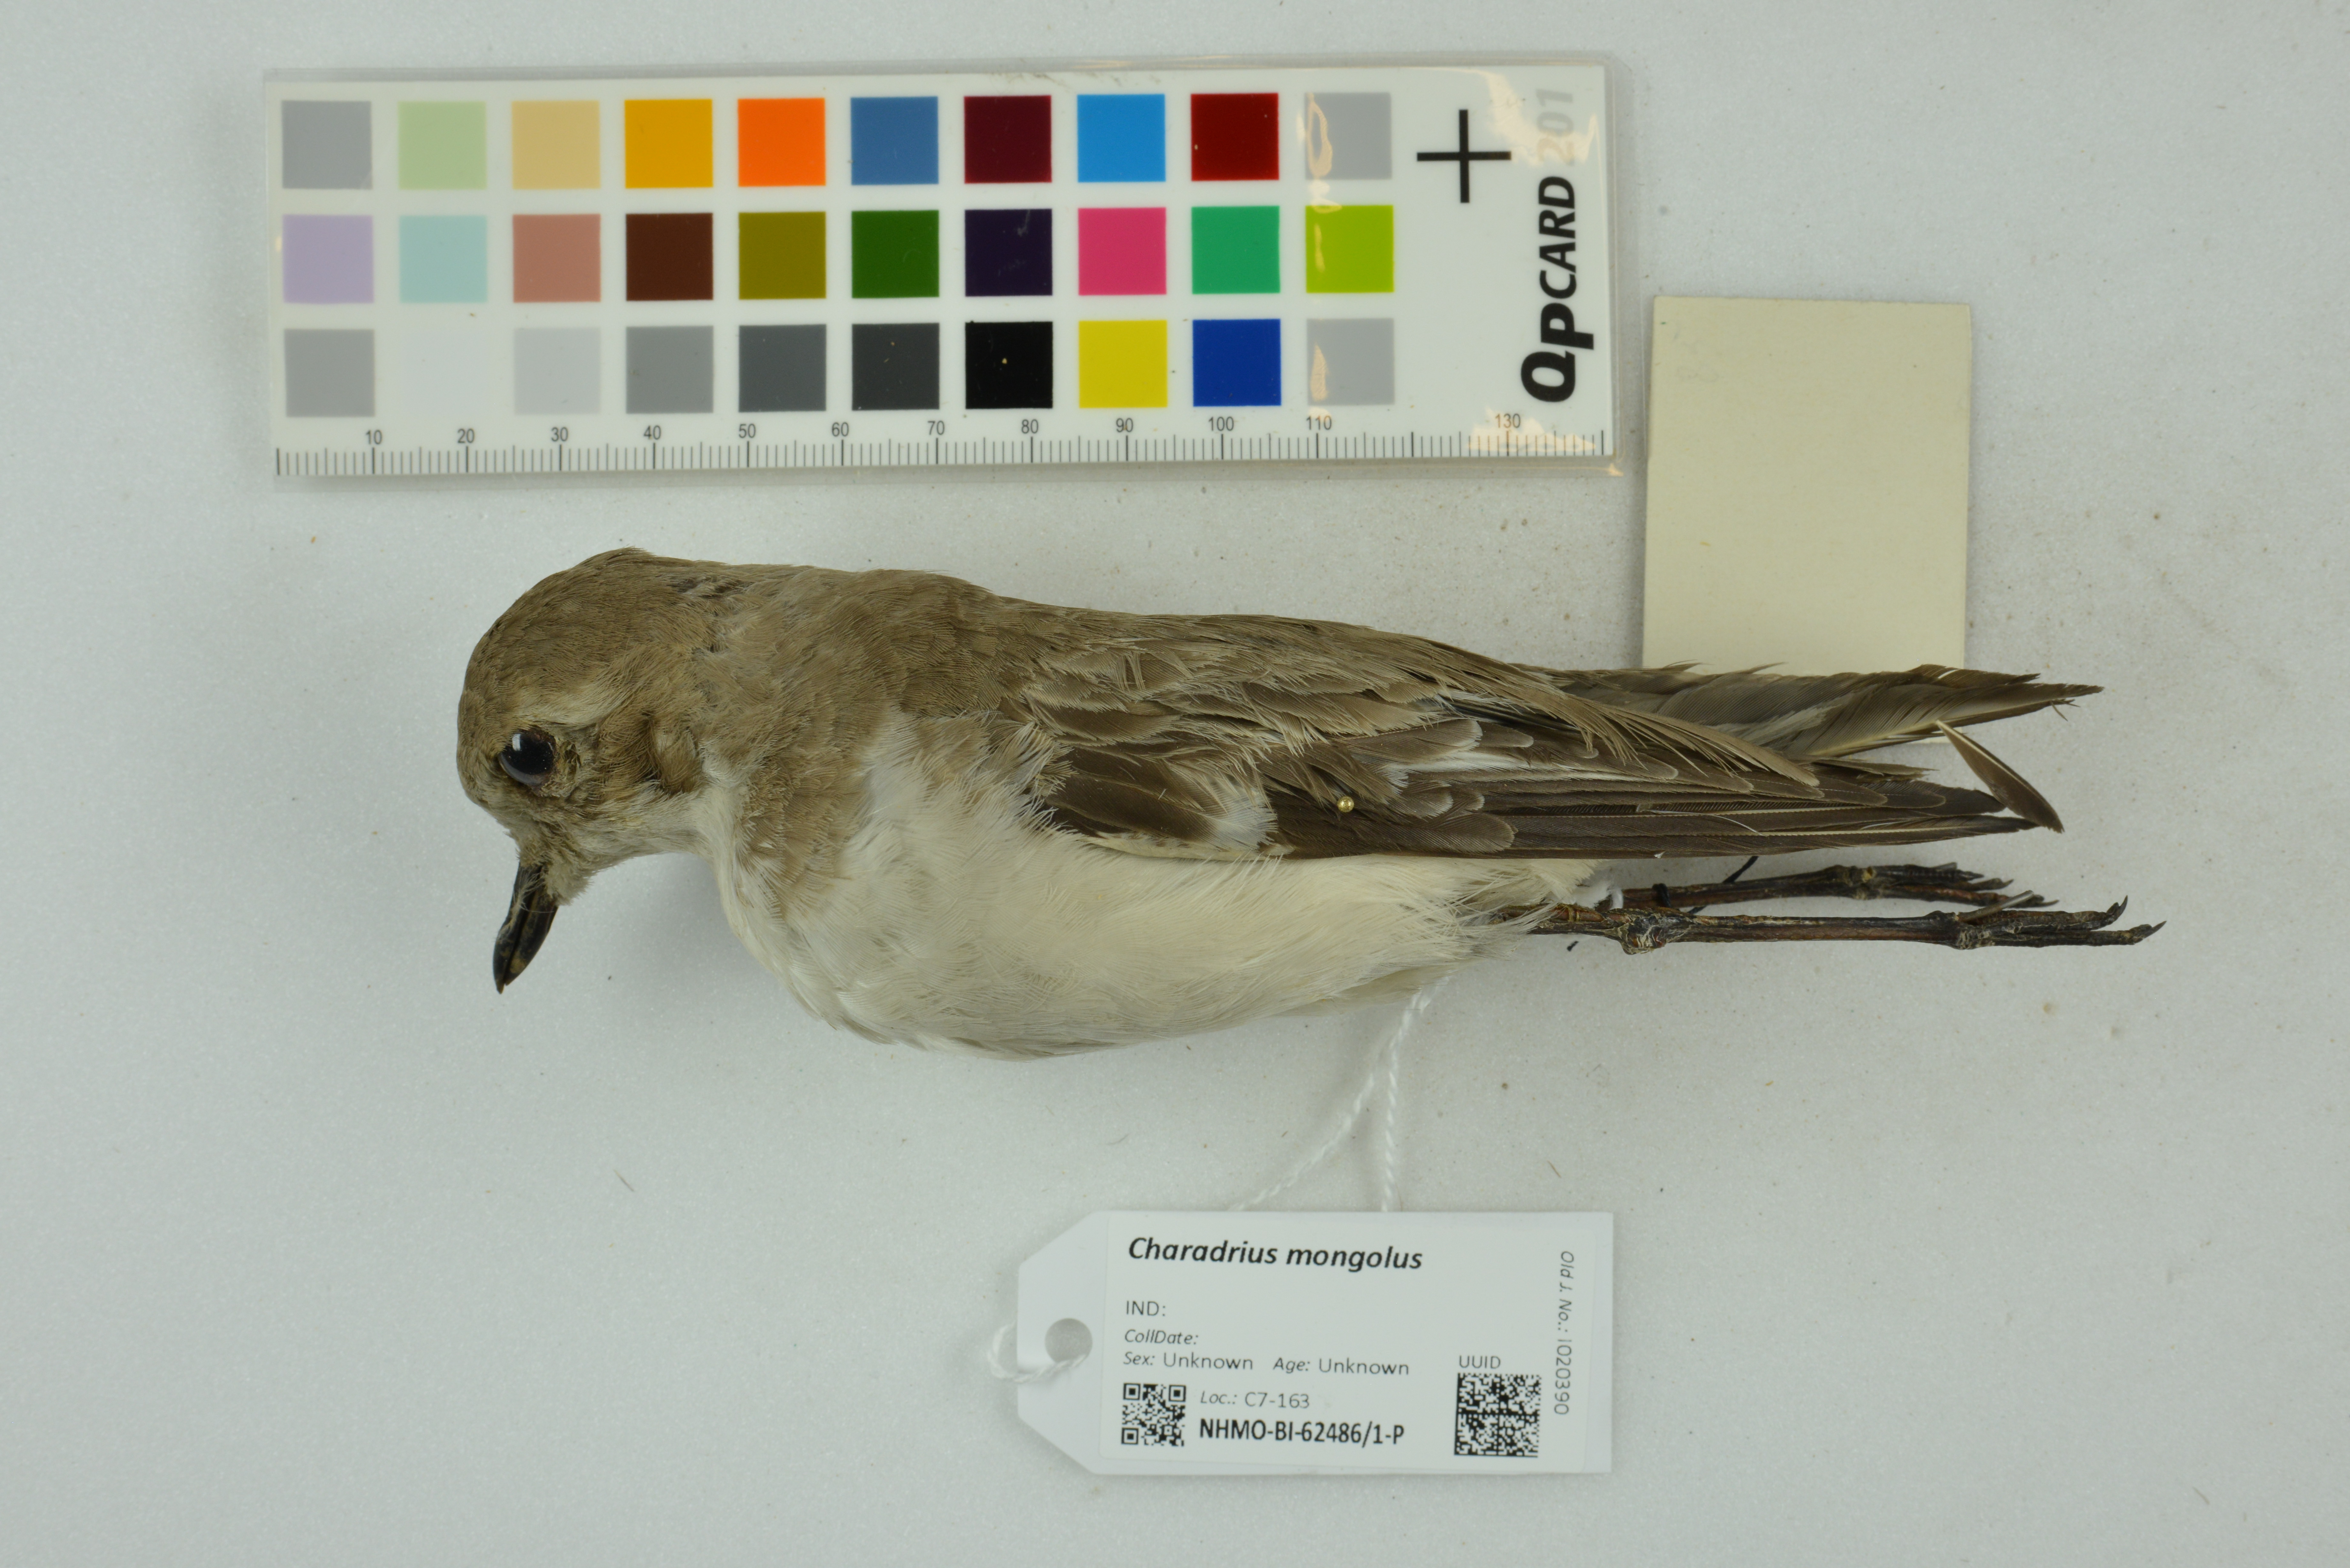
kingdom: Animalia
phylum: Chordata
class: Aves
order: Charadriiformes
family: Charadriidae
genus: Charadrius
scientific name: Charadrius mongolus
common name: Lesser sand-plover
